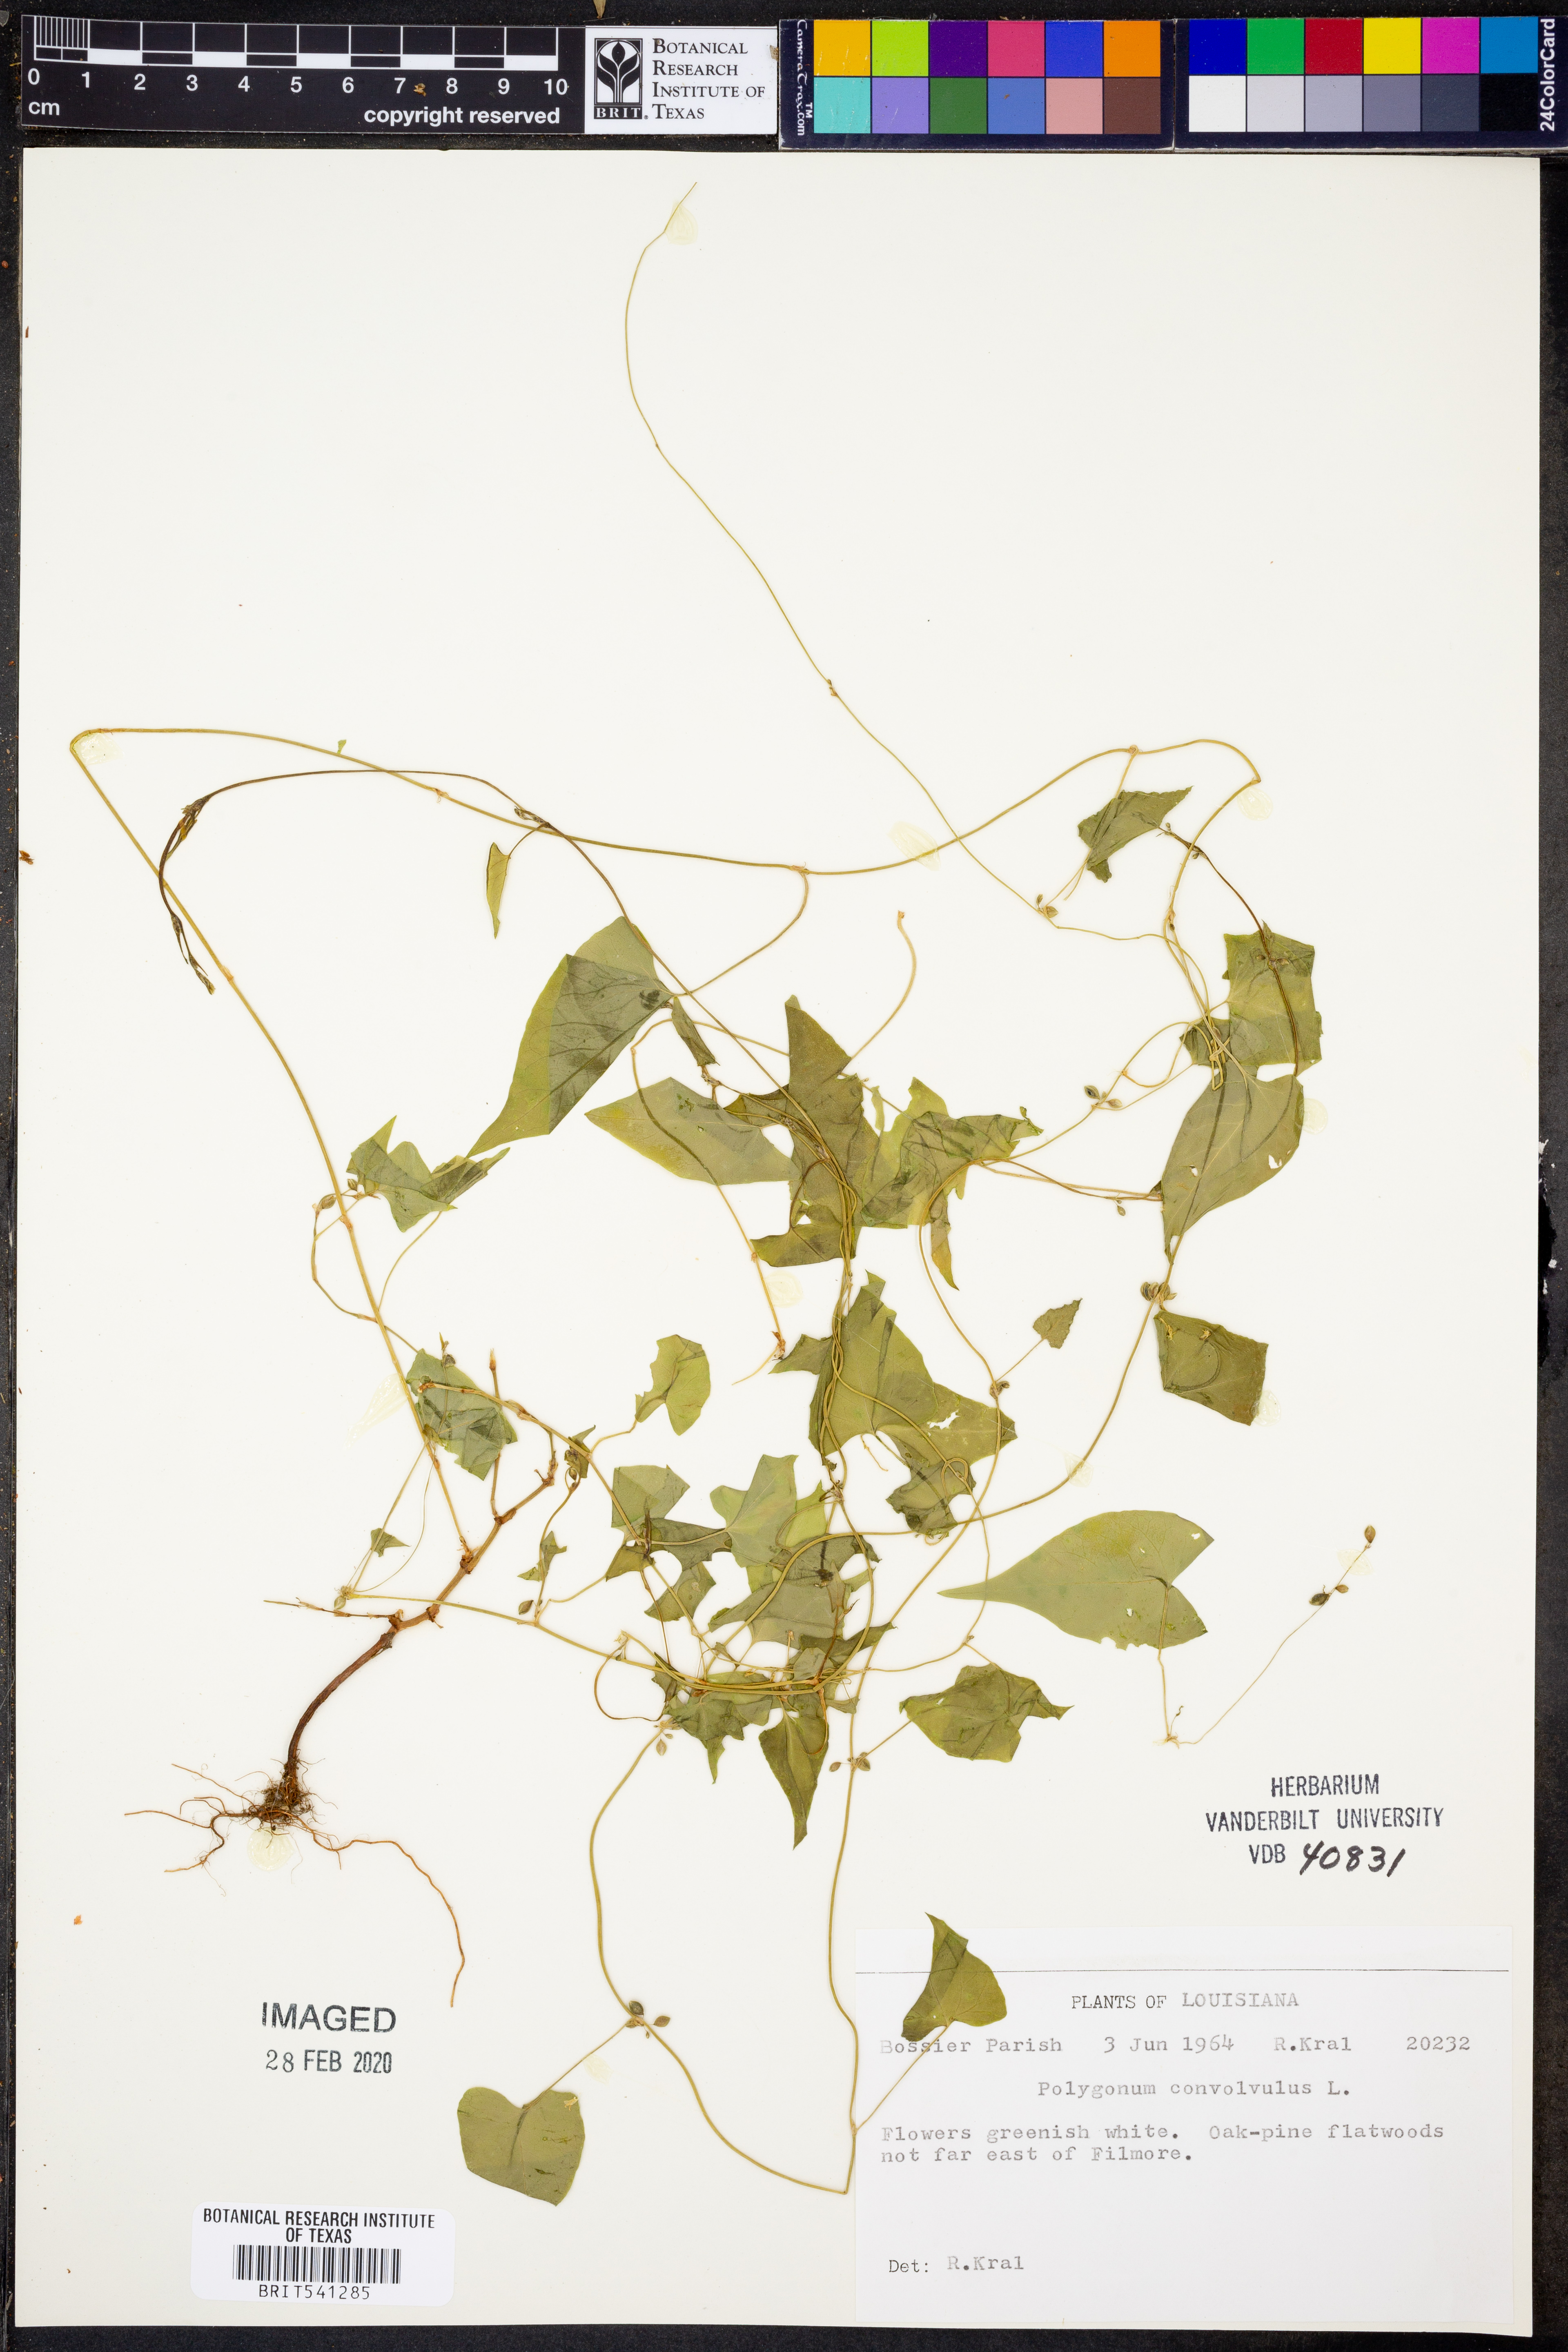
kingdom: Plantae
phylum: Tracheophyta
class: Magnoliopsida
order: Caryophyllales
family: Polygonaceae
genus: Fallopia
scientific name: Fallopia convolvulus
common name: Black bindweed
